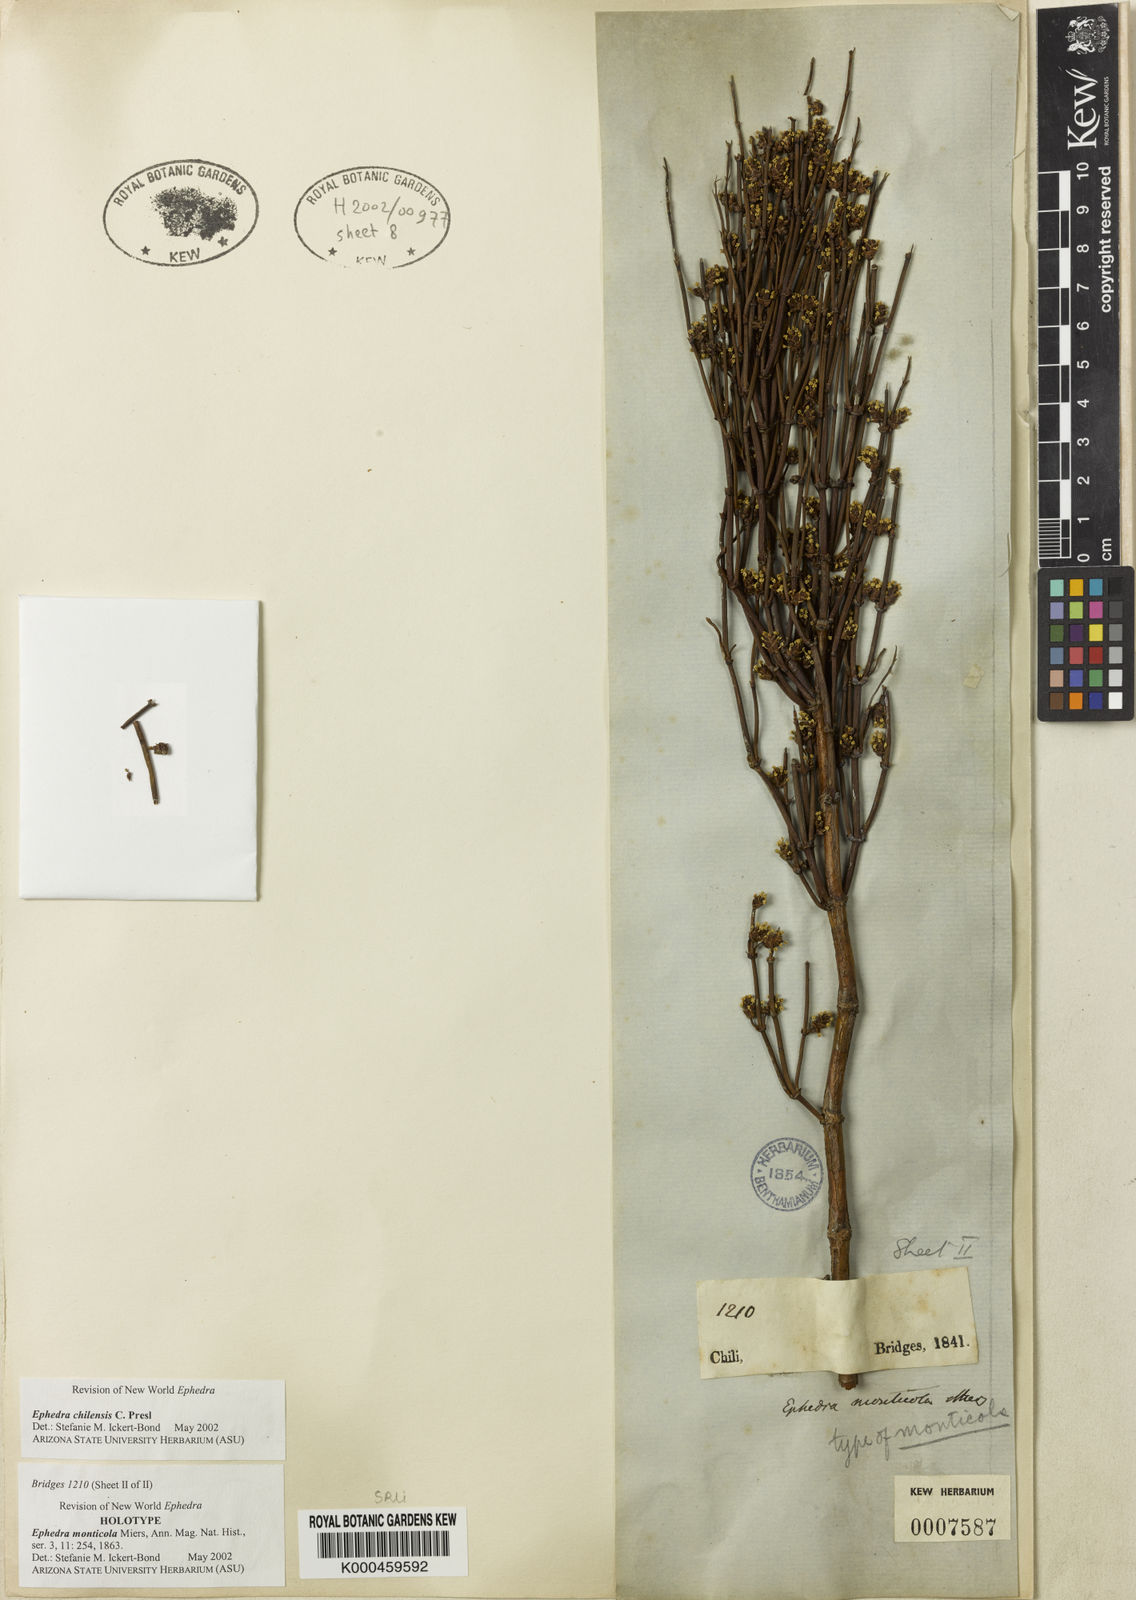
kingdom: Plantae
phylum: Tracheophyta
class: Gnetopsida
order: Ephedrales
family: Ephedraceae
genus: Ephedra
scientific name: Ephedra americana
